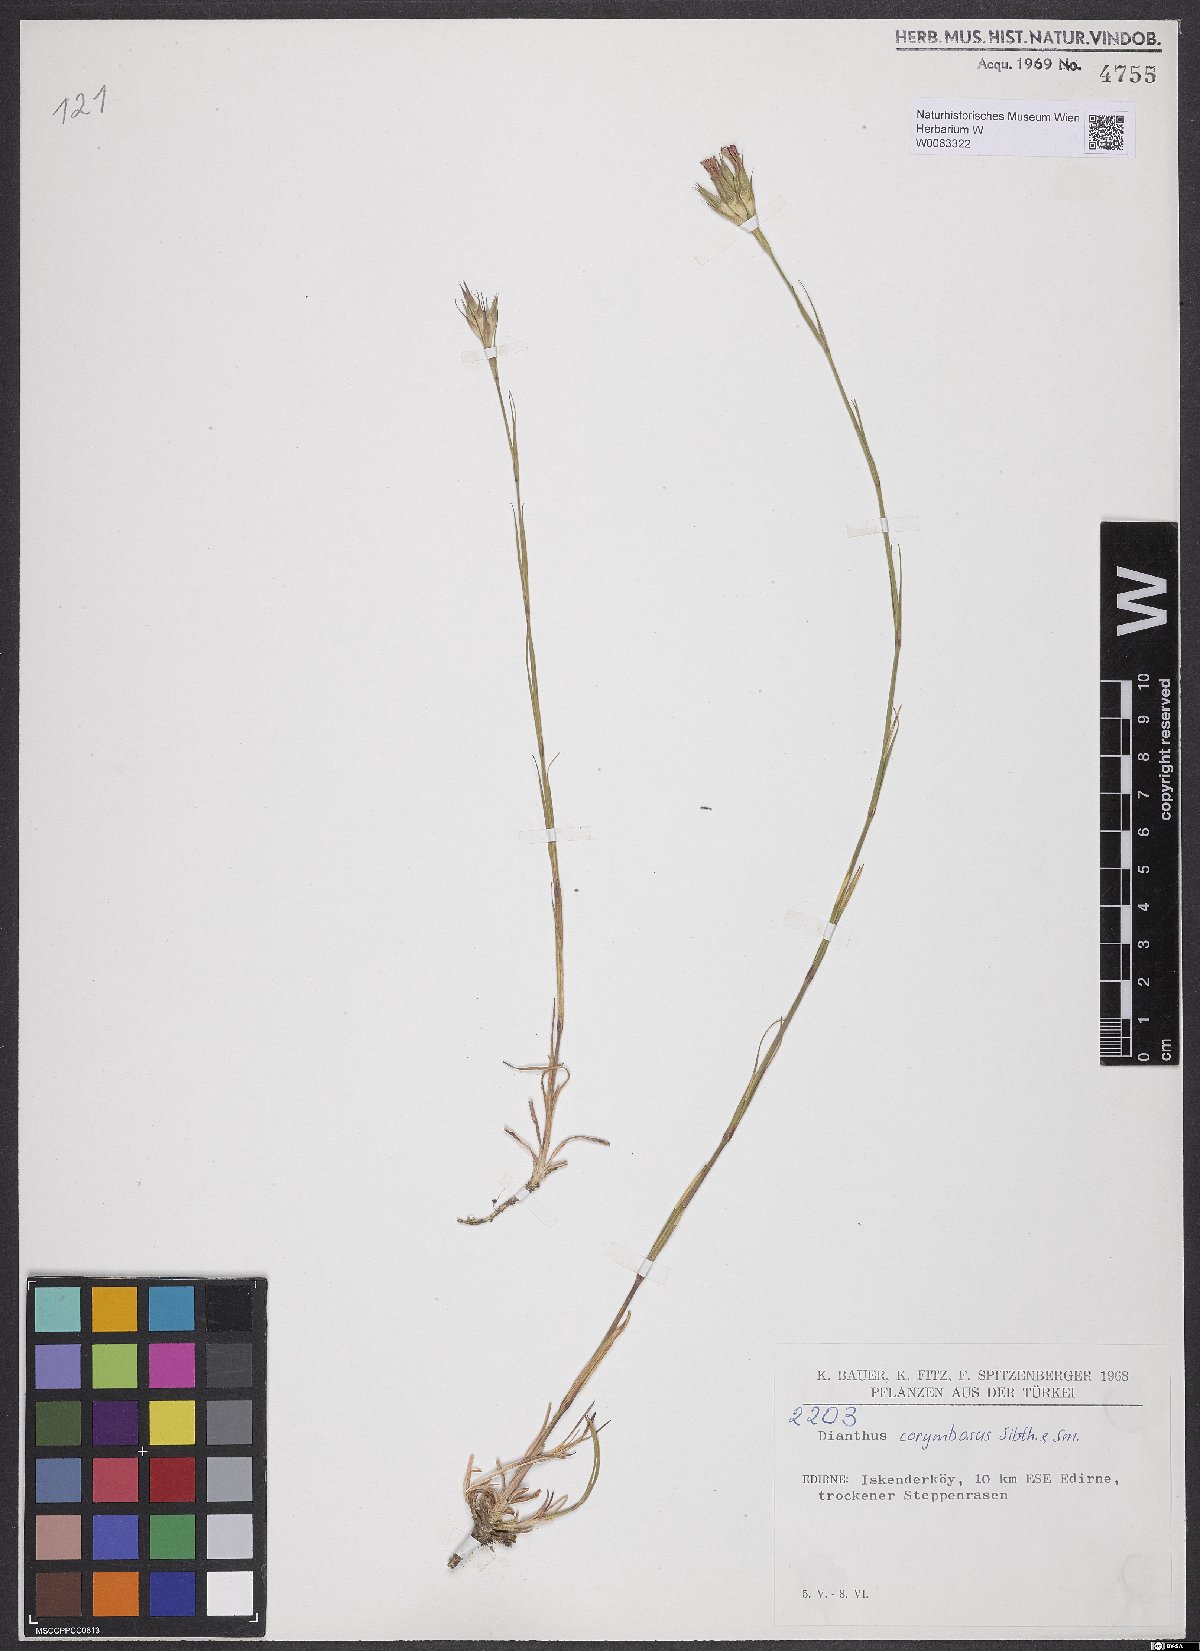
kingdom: Plantae
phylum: Tracheophyta
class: Magnoliopsida
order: Caryophyllales
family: Caryophyllaceae
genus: Dianthus
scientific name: Dianthus corymbosus
